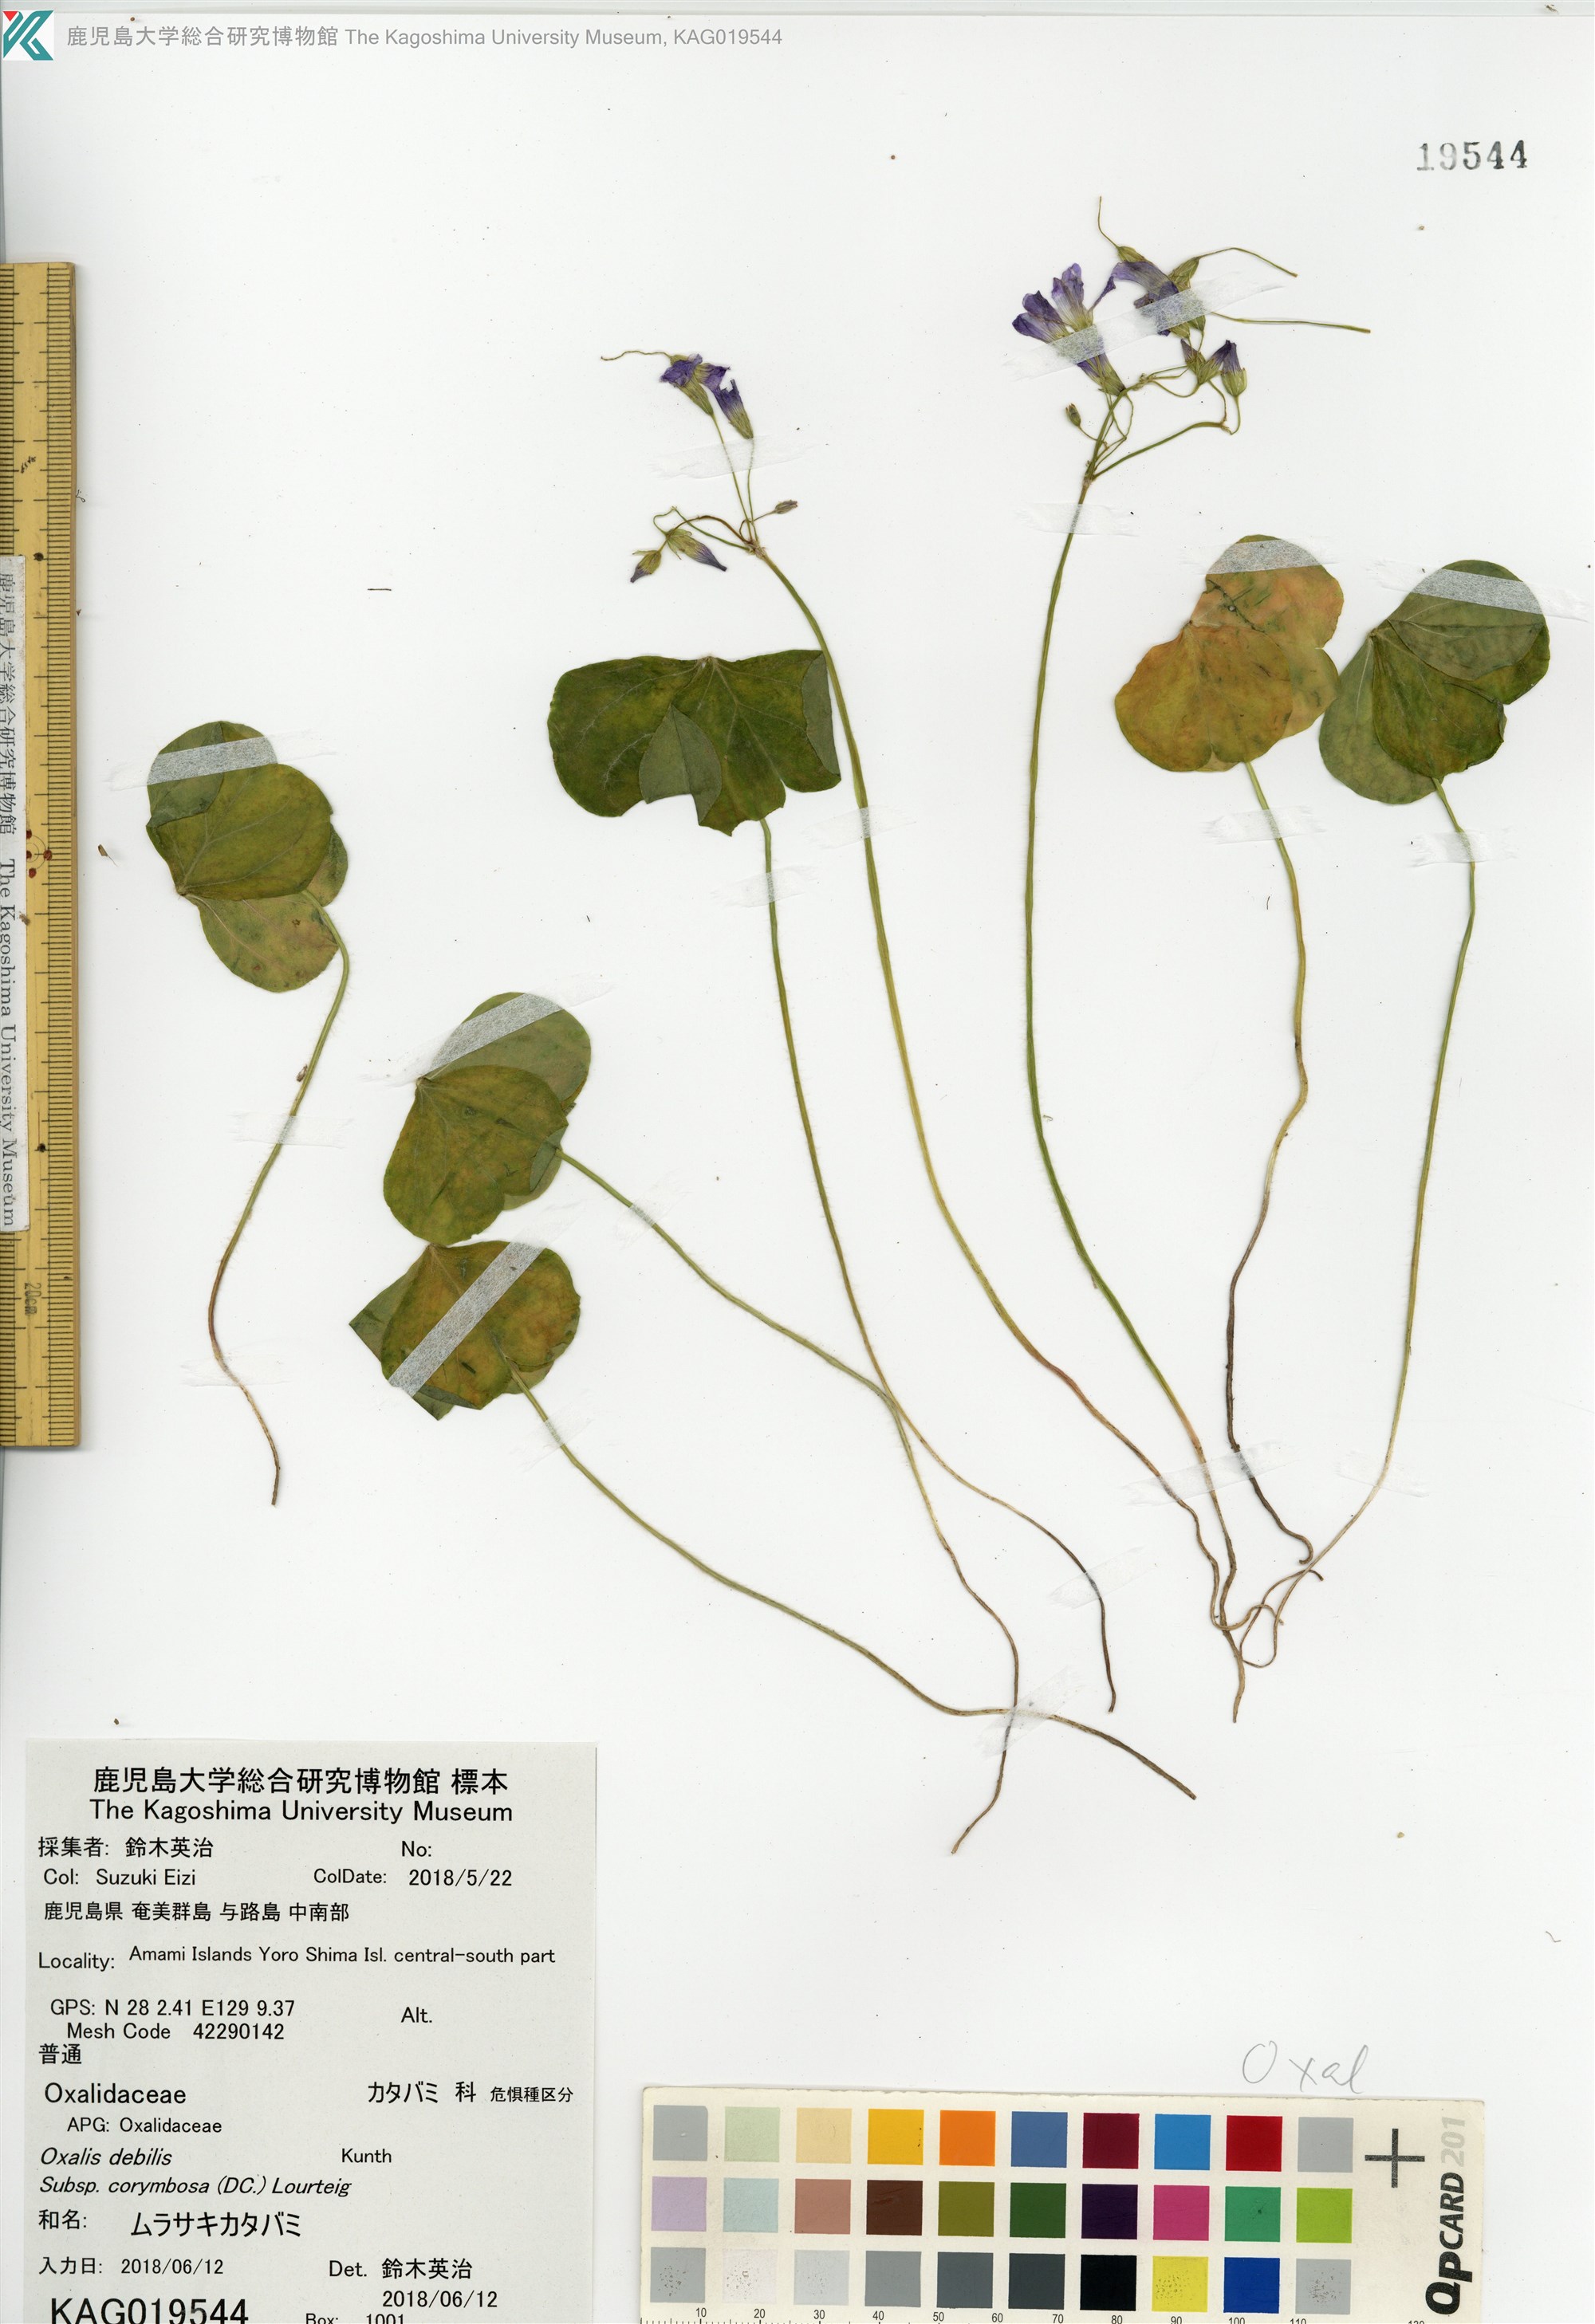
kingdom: Plantae
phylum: Tracheophyta
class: Magnoliopsida
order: Oxalidales
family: Oxalidaceae
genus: Oxalis
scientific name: Oxalis debilis
